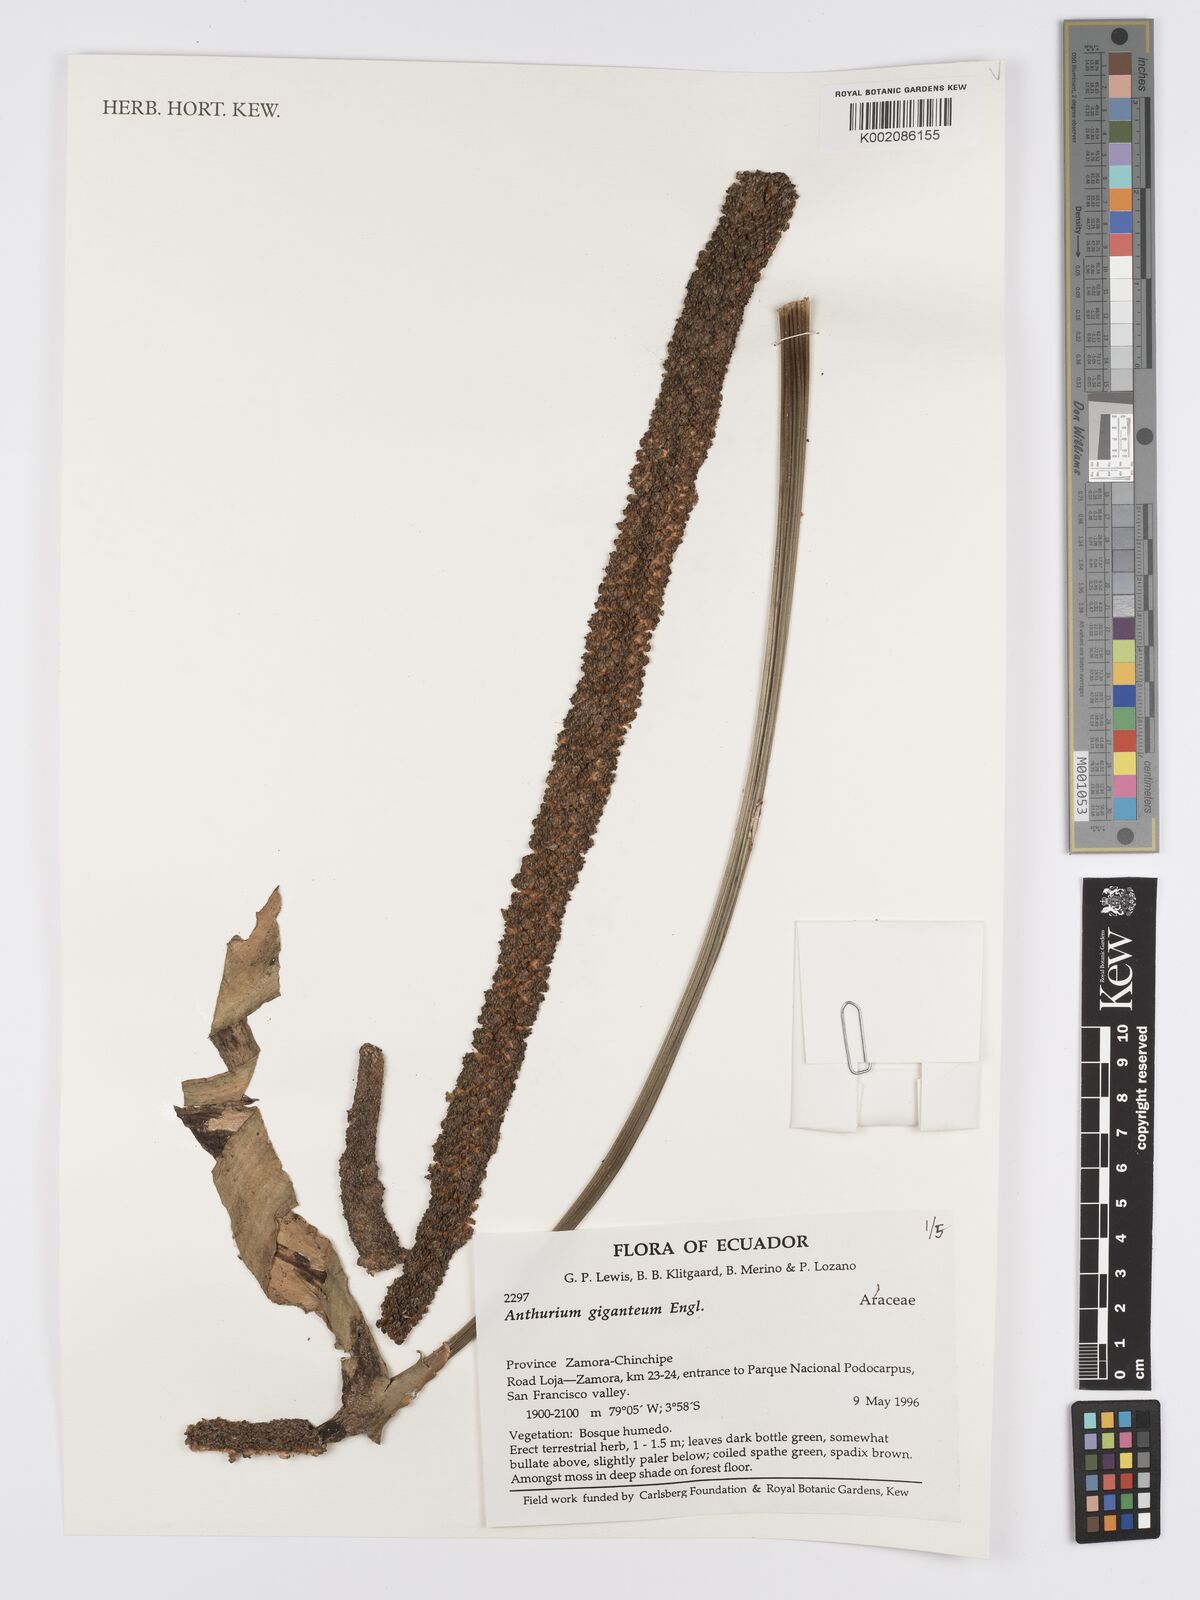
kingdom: Plantae
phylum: Tracheophyta
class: Liliopsida
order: Alismatales
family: Araceae
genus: Anthurium
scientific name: Anthurium giganteum
